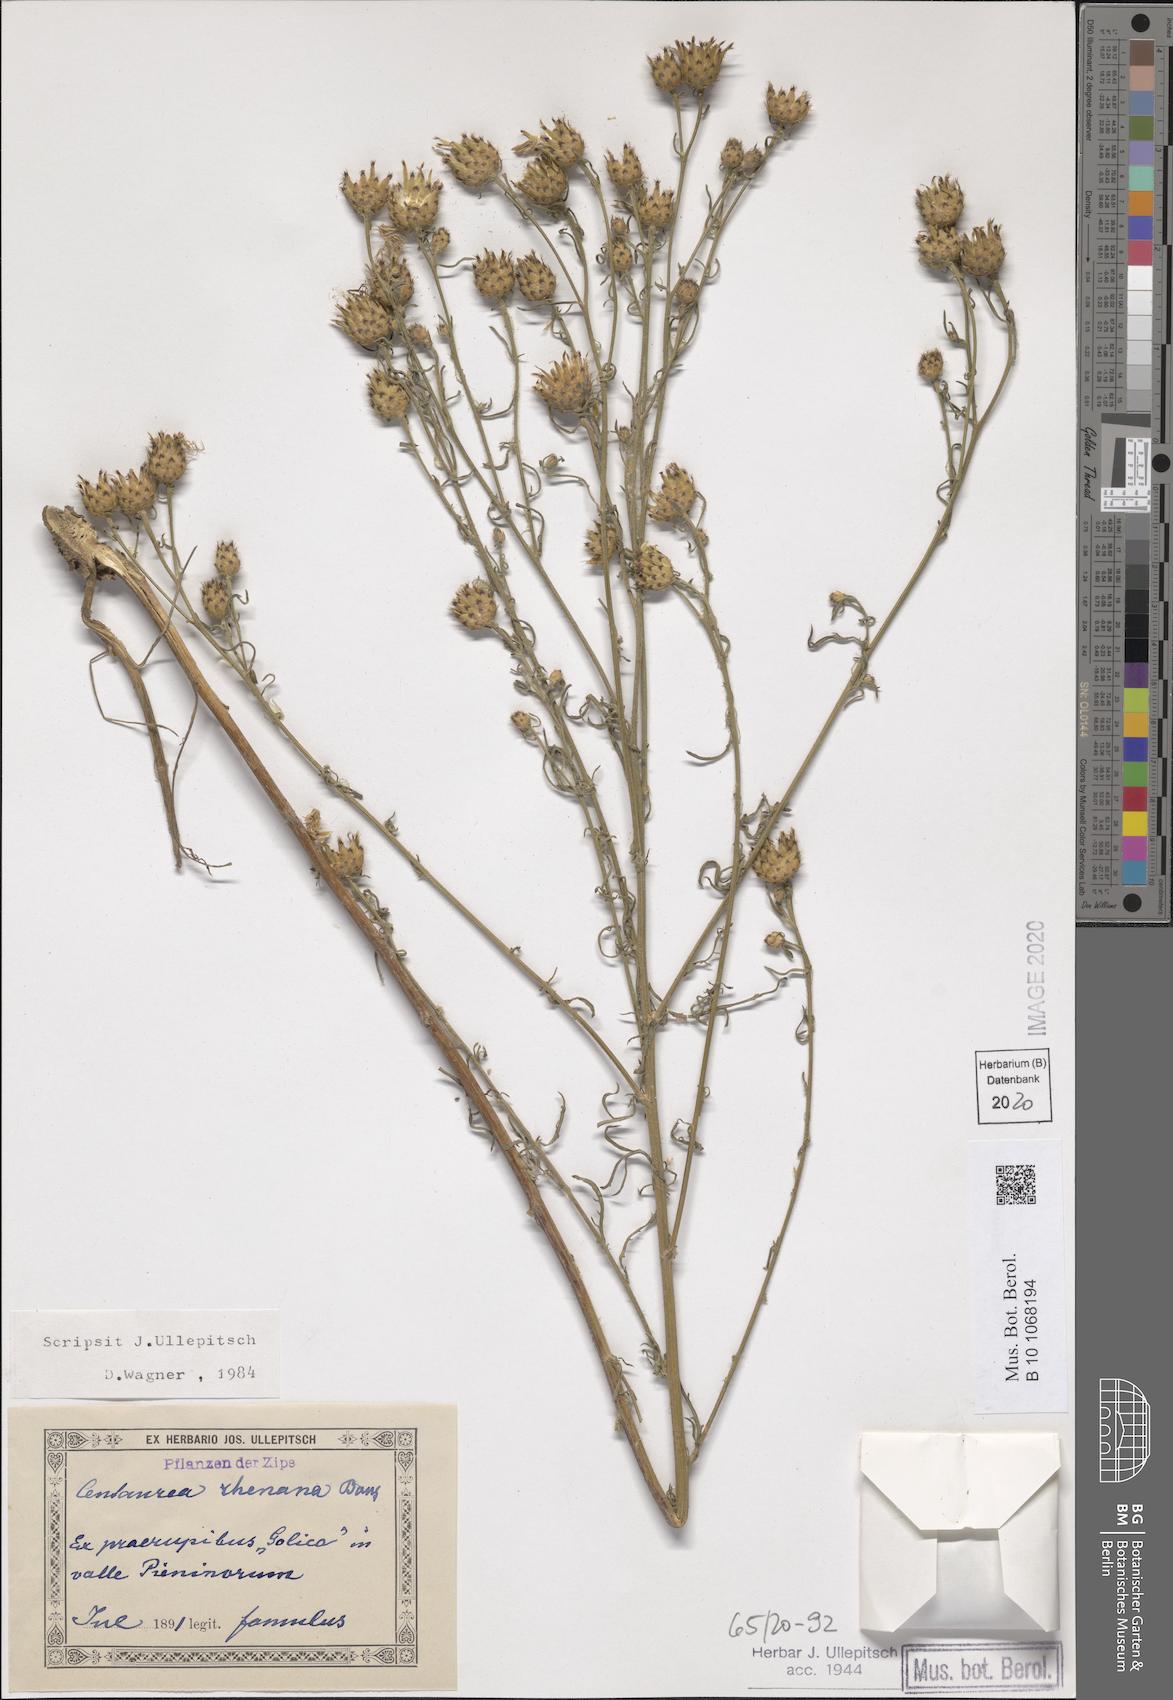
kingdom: Plantae
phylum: Tracheophyta
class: Magnoliopsida
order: Asterales
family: Asteraceae
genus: Centaurea
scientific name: Centaurea stoebe
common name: Spotted knapweed
